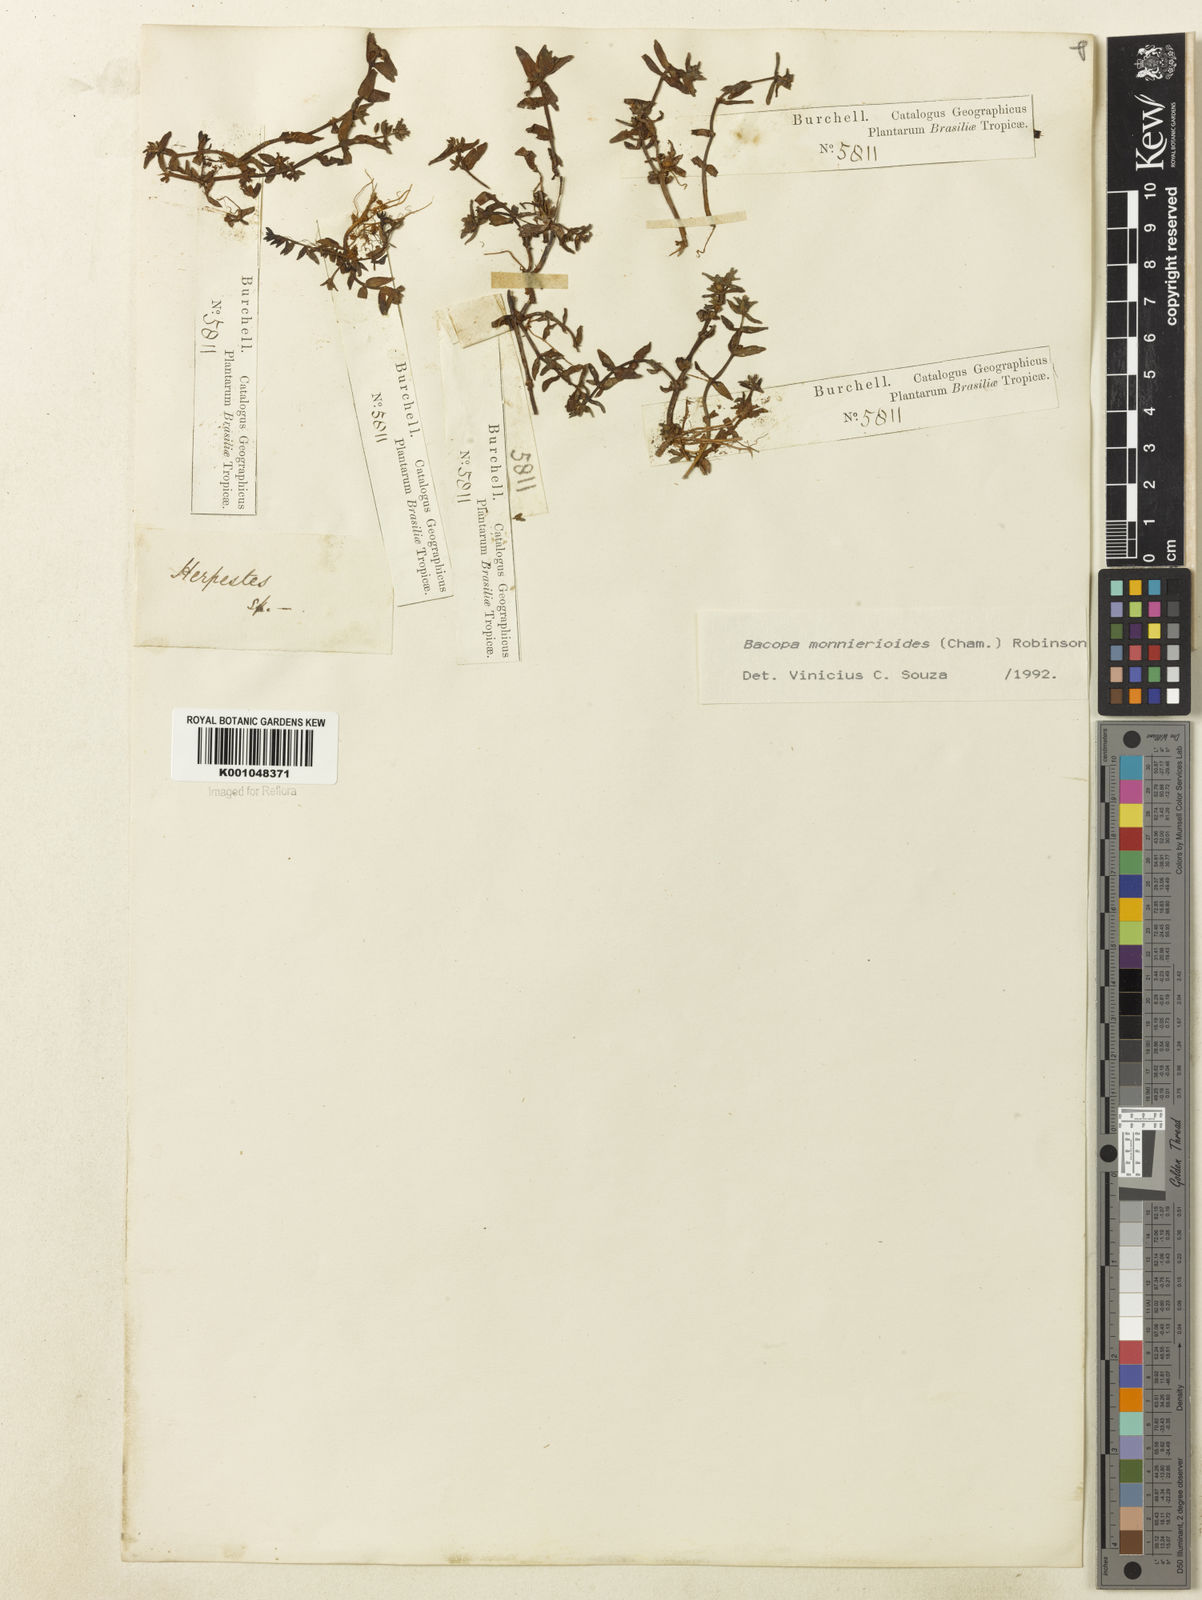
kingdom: Plantae
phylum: Tracheophyta
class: Magnoliopsida
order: Lamiales
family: Plantaginaceae
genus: Bacopa
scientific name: Bacopa monnierioides
